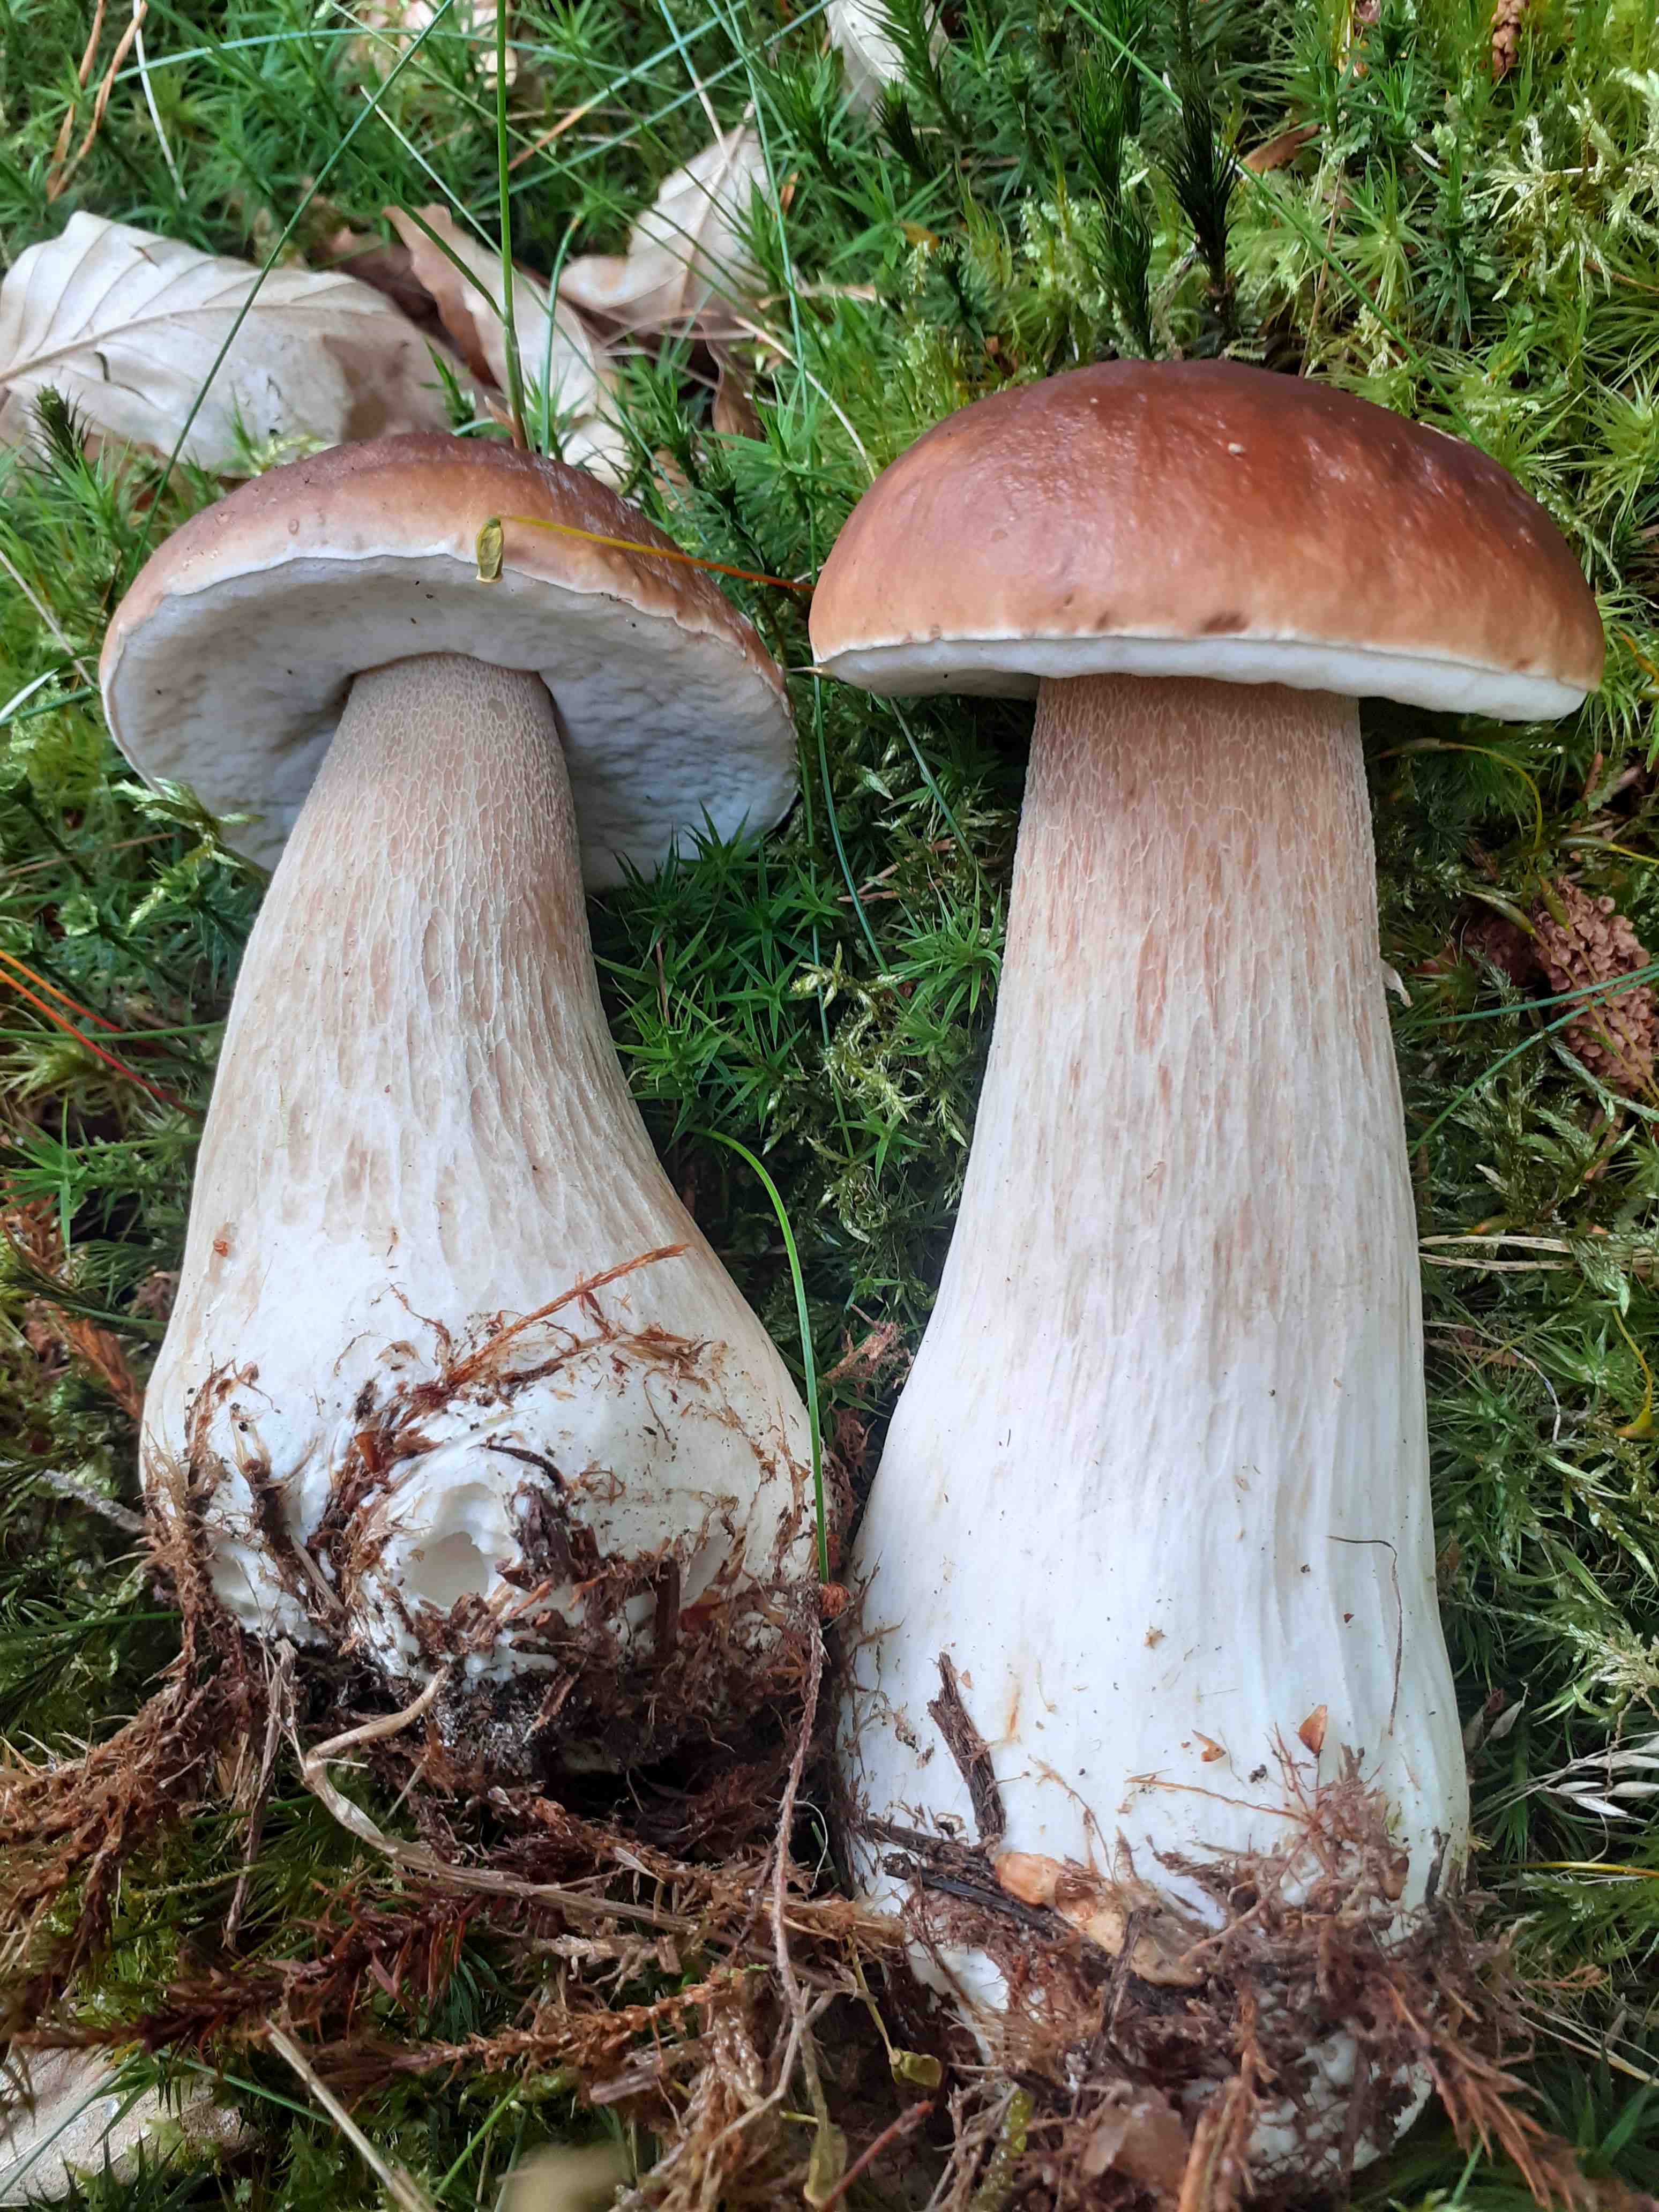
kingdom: Fungi
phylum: Basidiomycota
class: Agaricomycetes
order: Boletales
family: Boletaceae
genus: Boletus
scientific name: Boletus edulis
